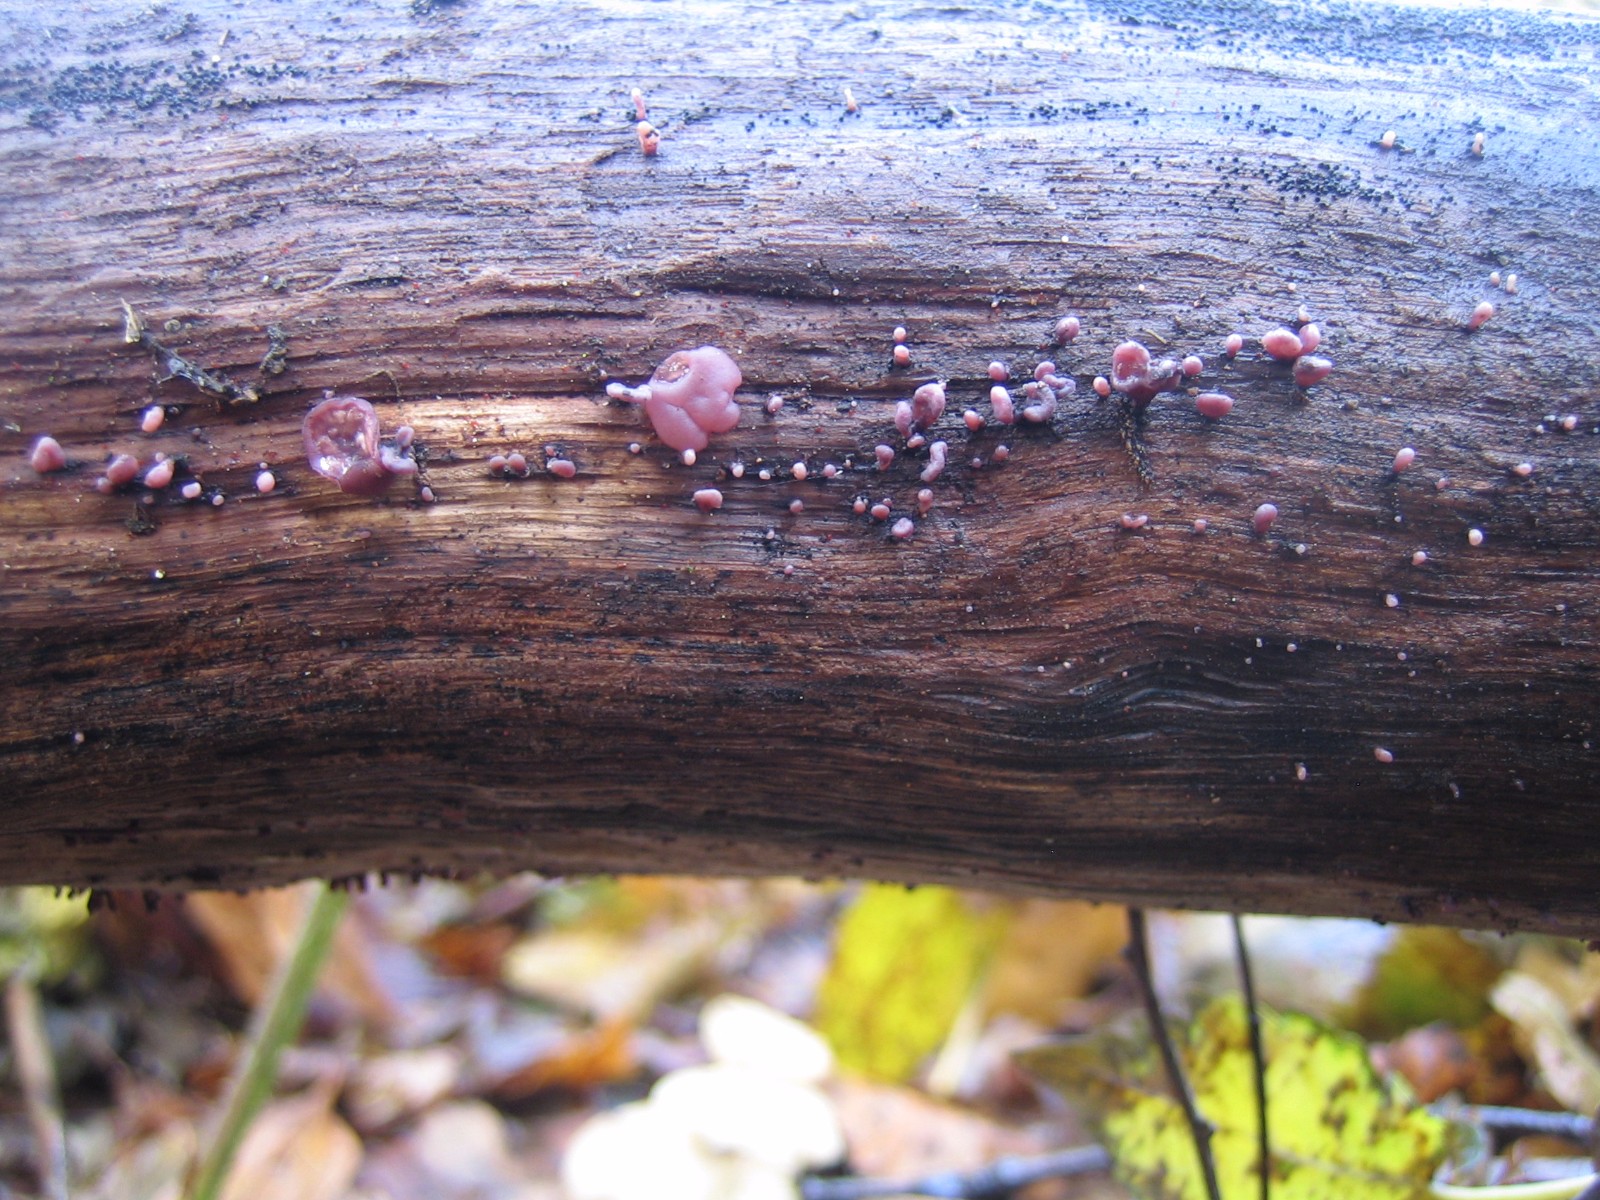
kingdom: Fungi
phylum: Ascomycota
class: Leotiomycetes
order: Helotiales
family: Gelatinodiscaceae
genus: Ascocoryne
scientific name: Ascocoryne sarcoides
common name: rødlilla sejskive
